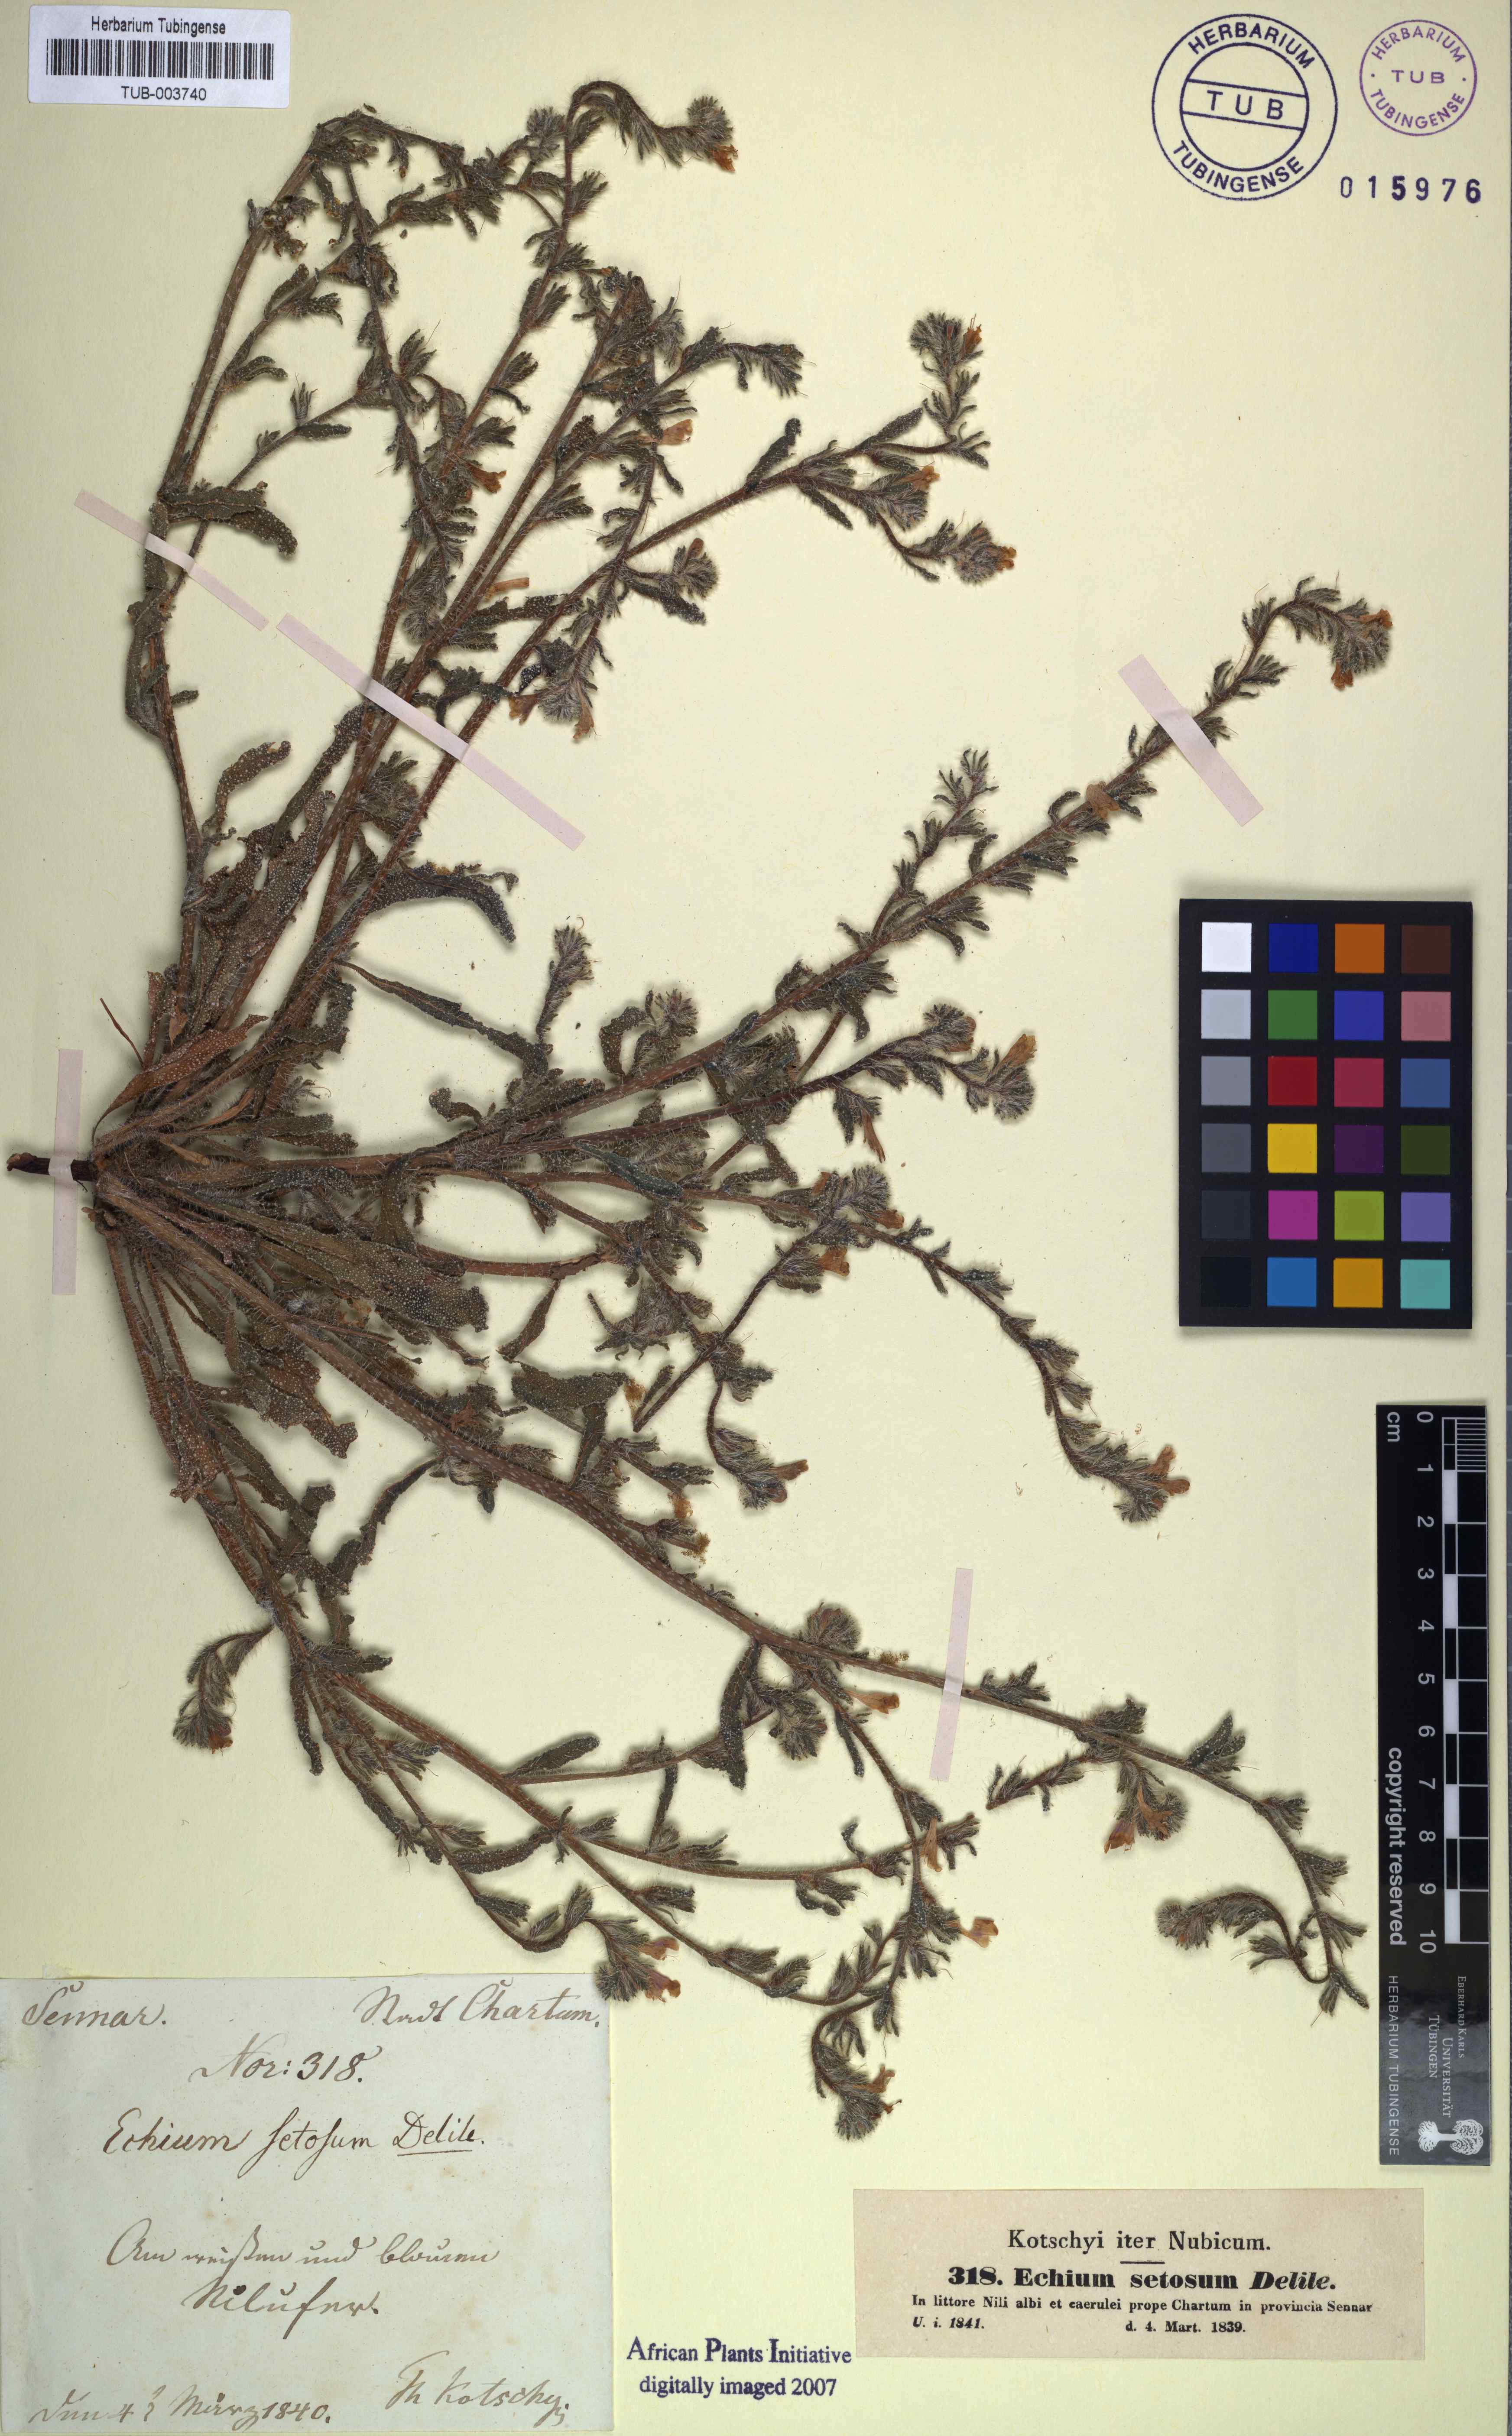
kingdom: Plantae
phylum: Tracheophyta
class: Magnoliopsida
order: Boraginales
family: Boraginaceae
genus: Echium
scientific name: Echium creticum
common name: Cretan viper's bugloss
